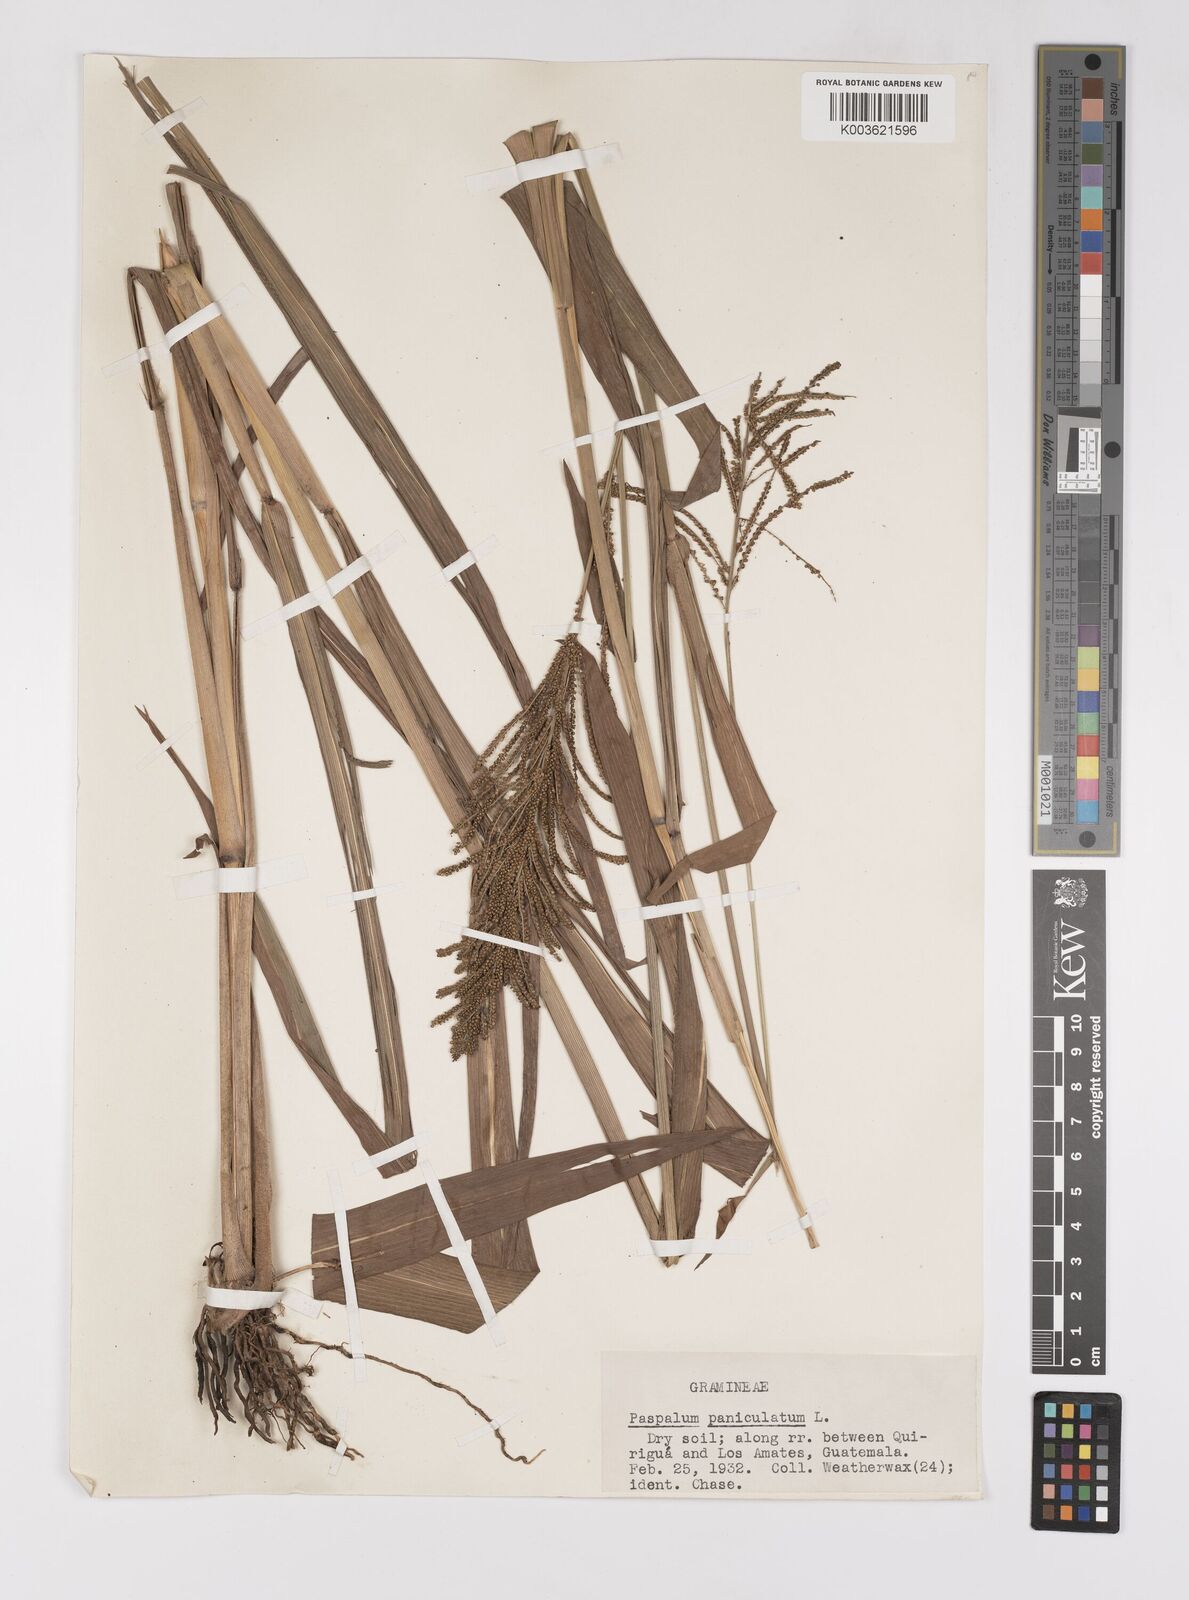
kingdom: Plantae
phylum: Tracheophyta
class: Liliopsida
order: Poales
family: Poaceae
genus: Paspalum
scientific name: Paspalum paniculatum
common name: Arrocillo
